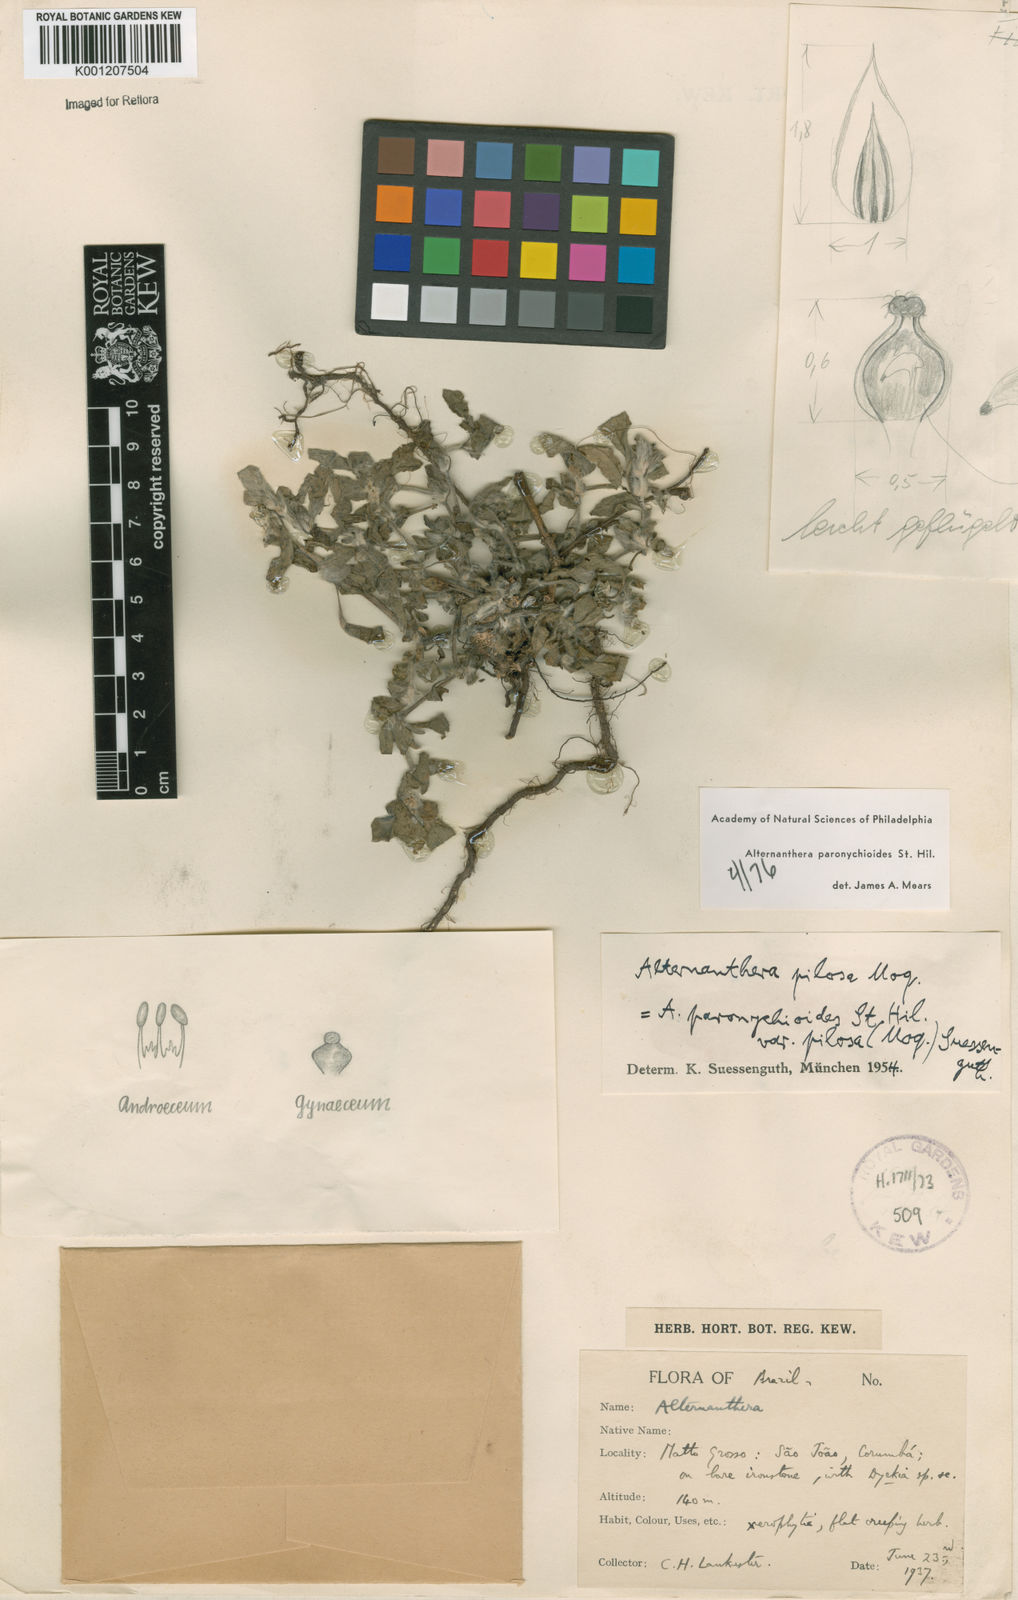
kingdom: Plantae
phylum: Tracheophyta
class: Magnoliopsida
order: Caryophyllales
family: Amaranthaceae
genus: Alternanthera
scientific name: Alternanthera paronychioides
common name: Smooth joyweed
